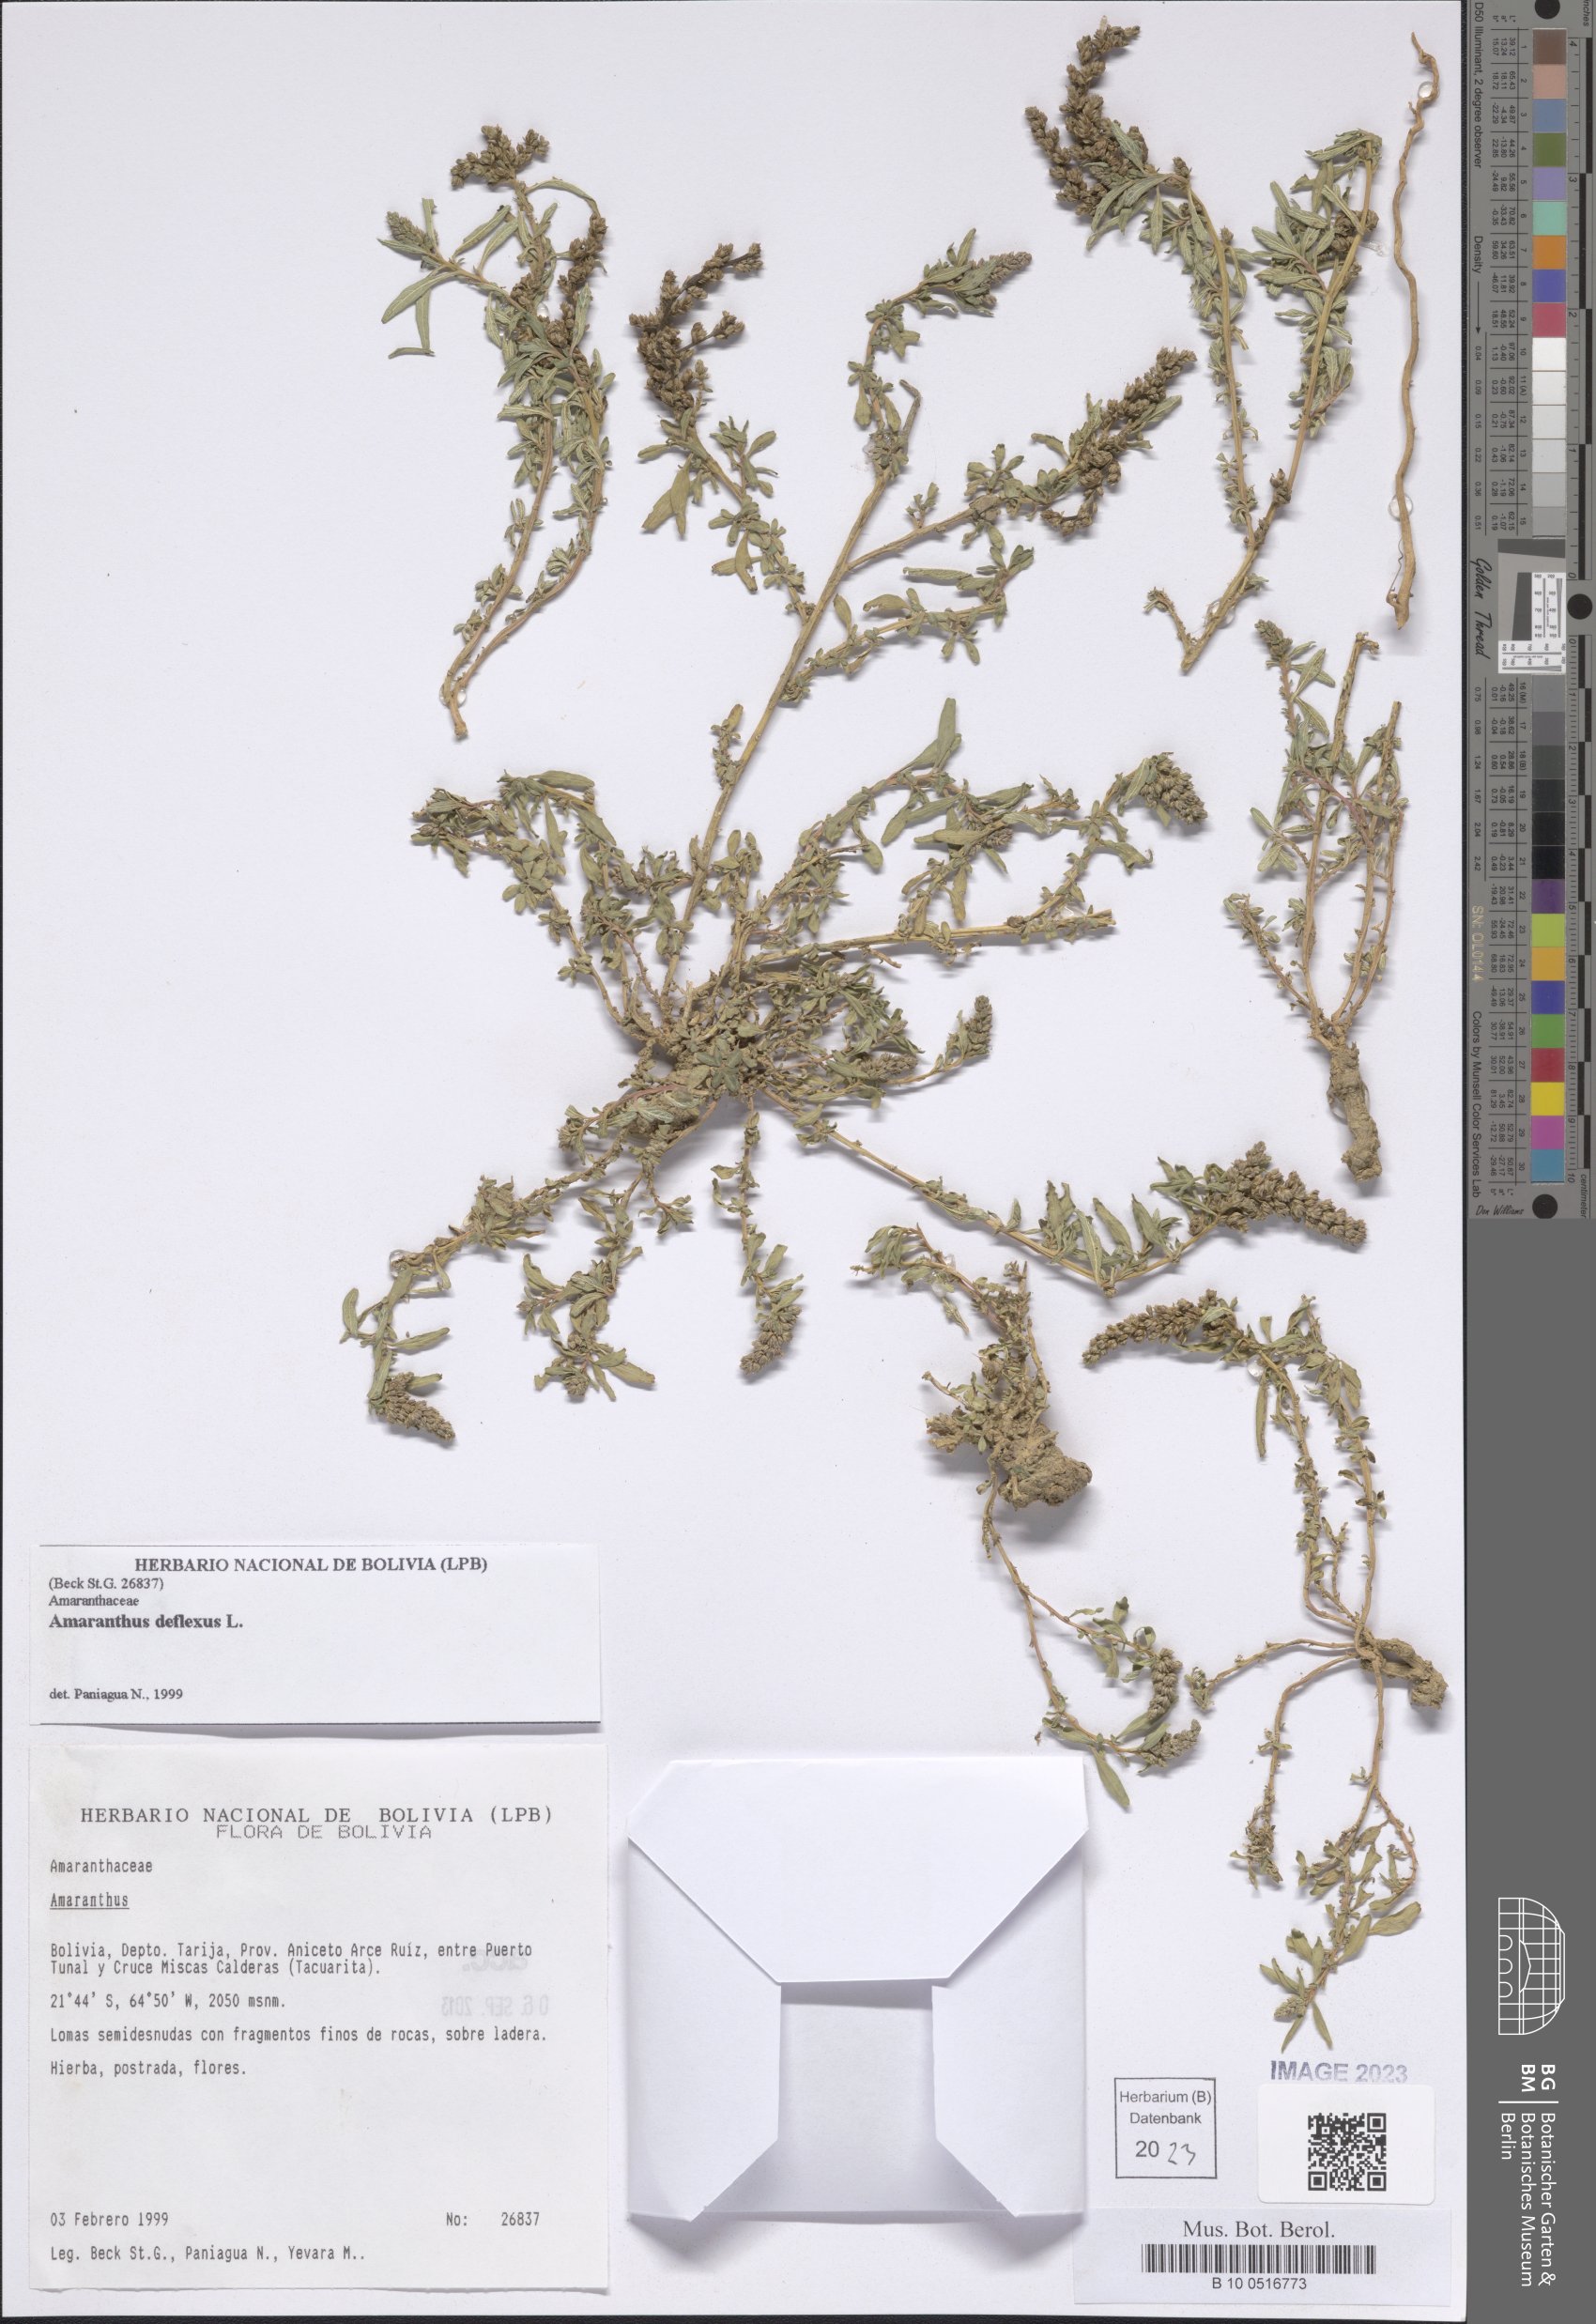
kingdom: Plantae
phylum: Tracheophyta
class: Magnoliopsida
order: Caryophyllales
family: Amaranthaceae
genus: Amaranthus
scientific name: Amaranthus deflexus
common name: Perennial pigweed
